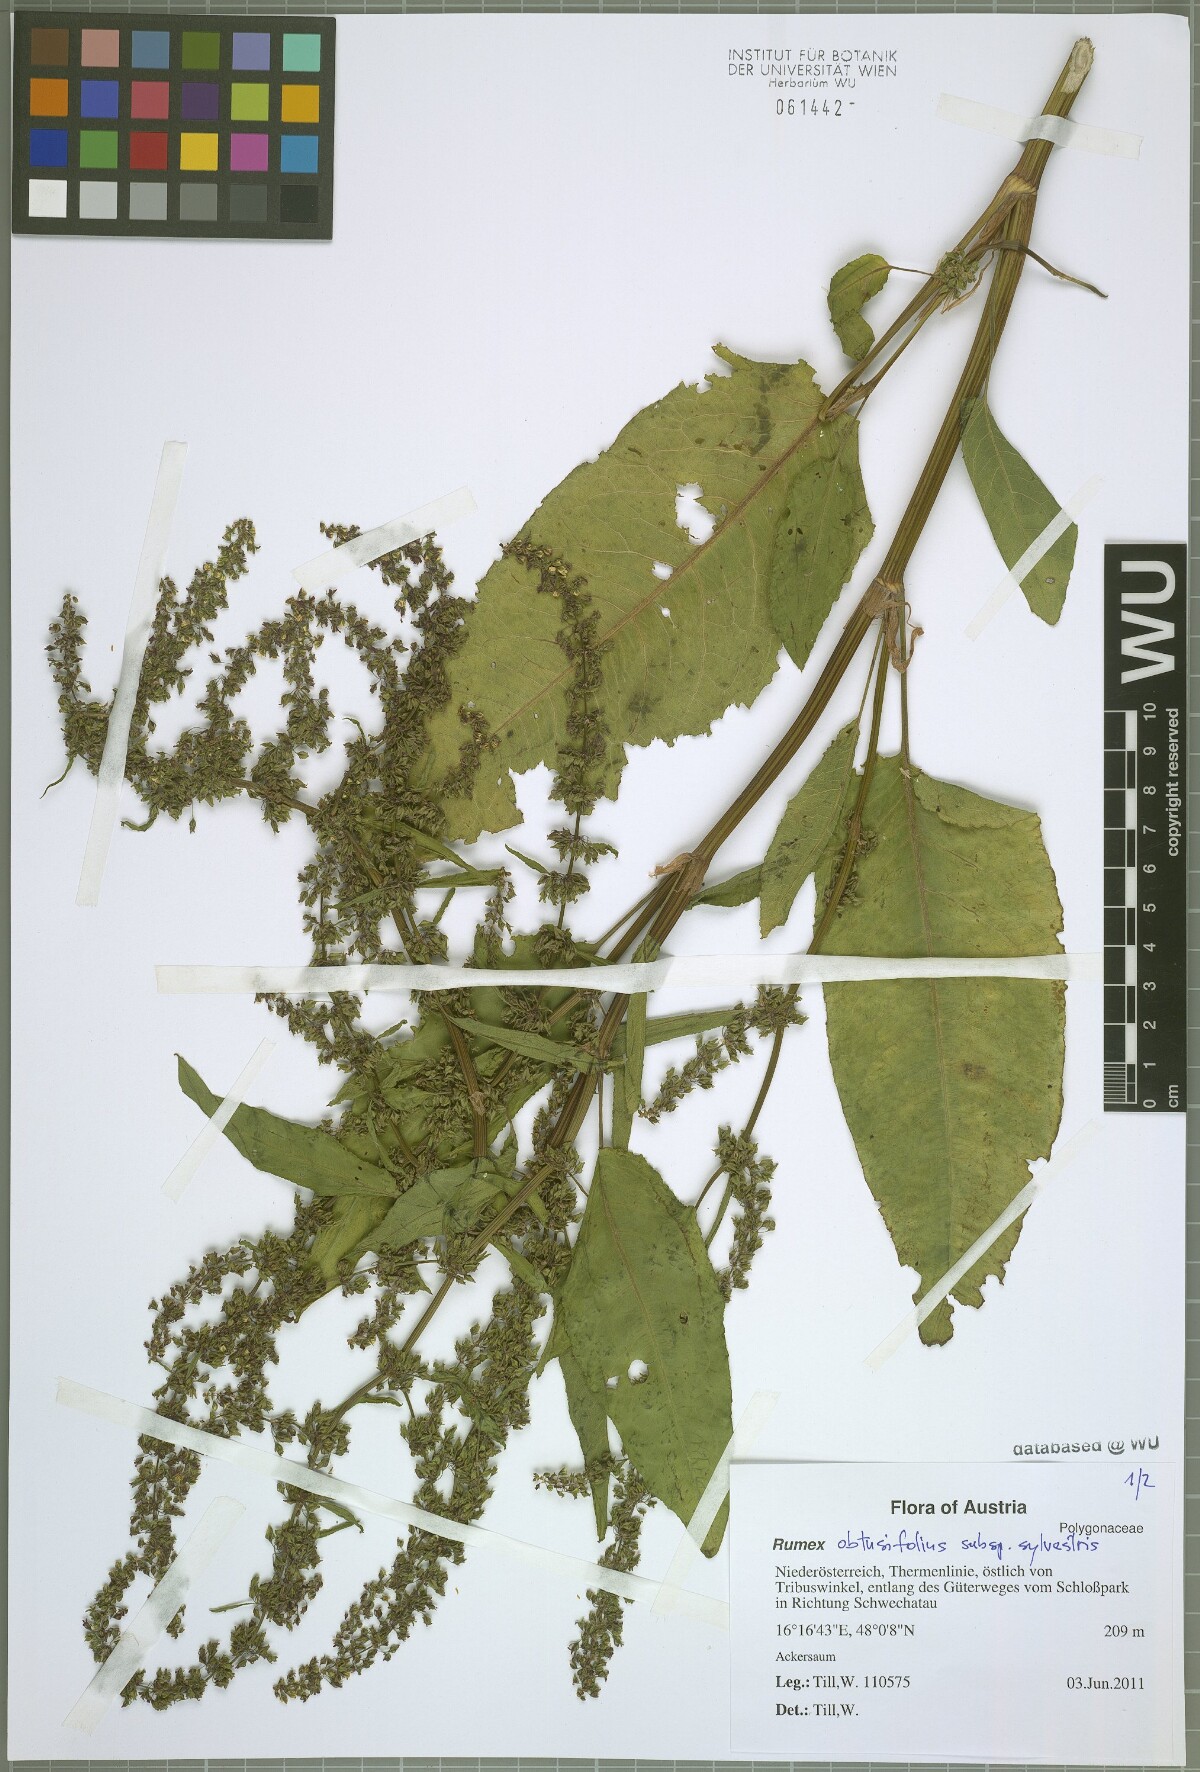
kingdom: Plantae
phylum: Tracheophyta
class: Magnoliopsida
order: Caryophyllales
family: Polygonaceae
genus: Rumex
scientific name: Rumex obtusifolius
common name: Bitter dock
